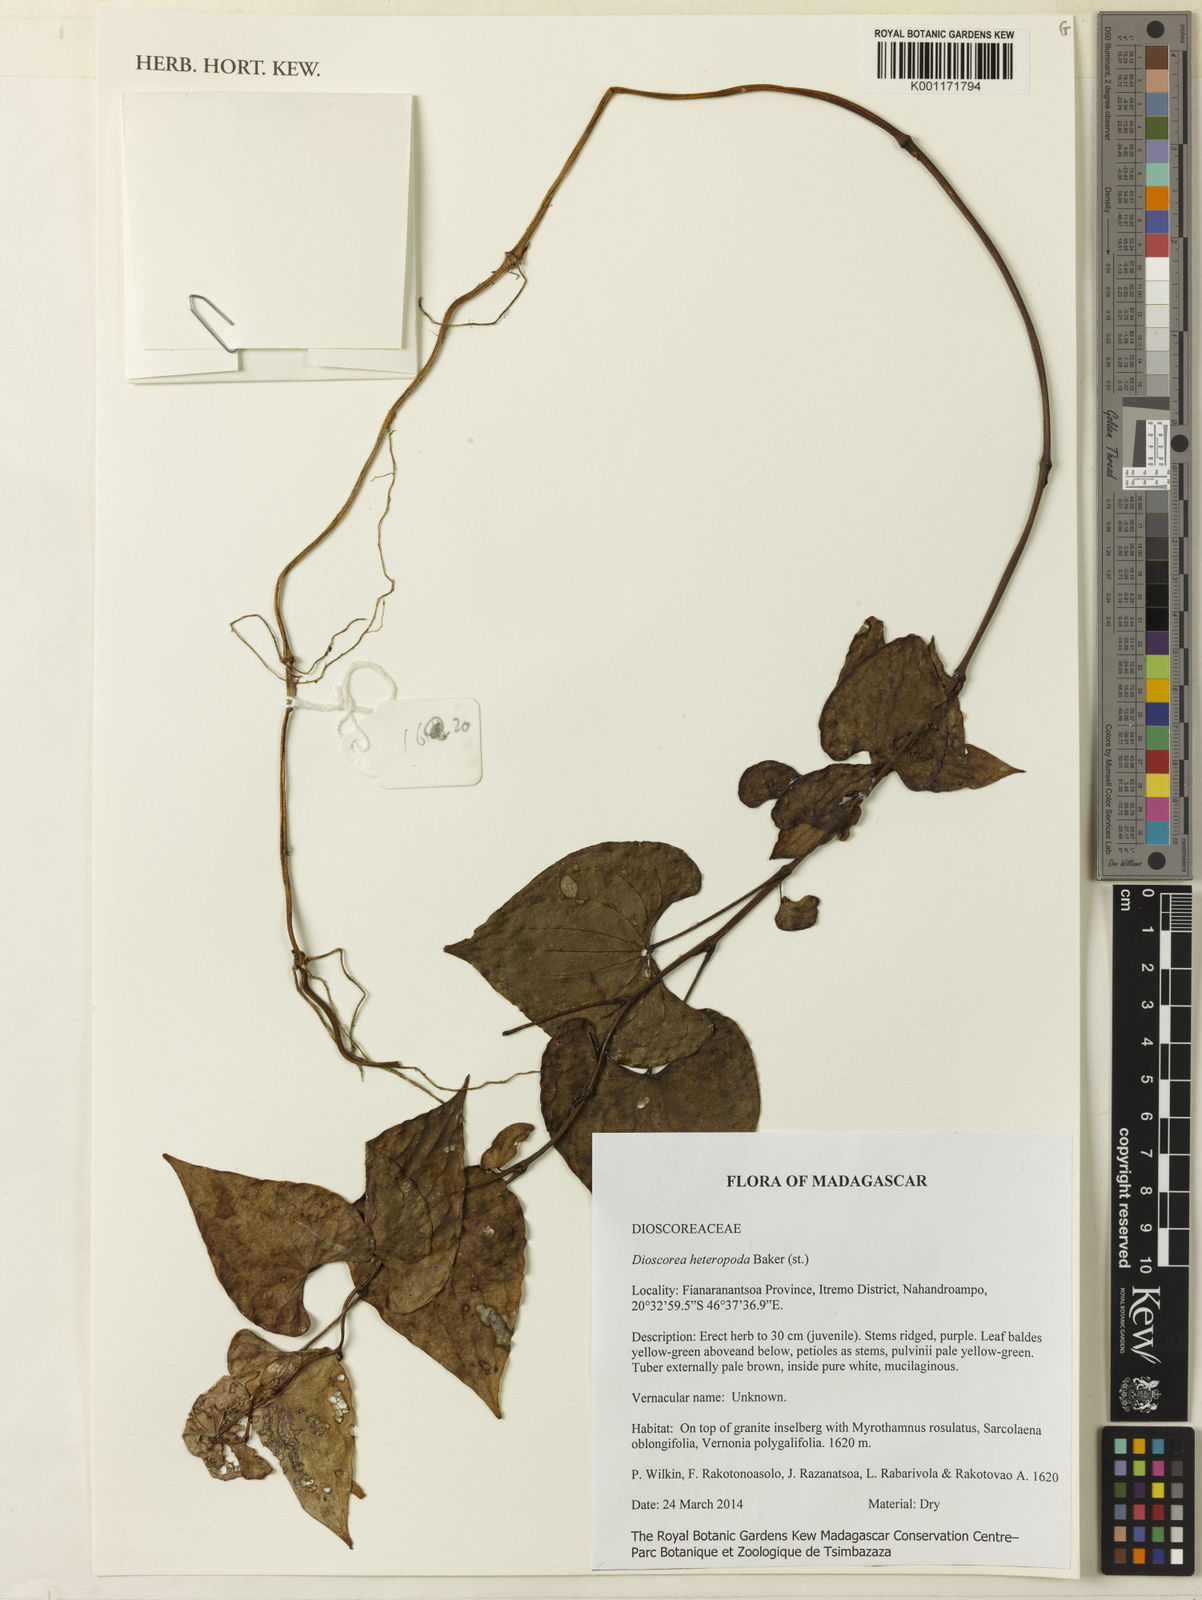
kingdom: Plantae
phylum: Tracheophyta
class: Liliopsida
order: Dioscoreales
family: Dioscoreaceae
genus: Dioscorea
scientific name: Dioscorea heteropoda
